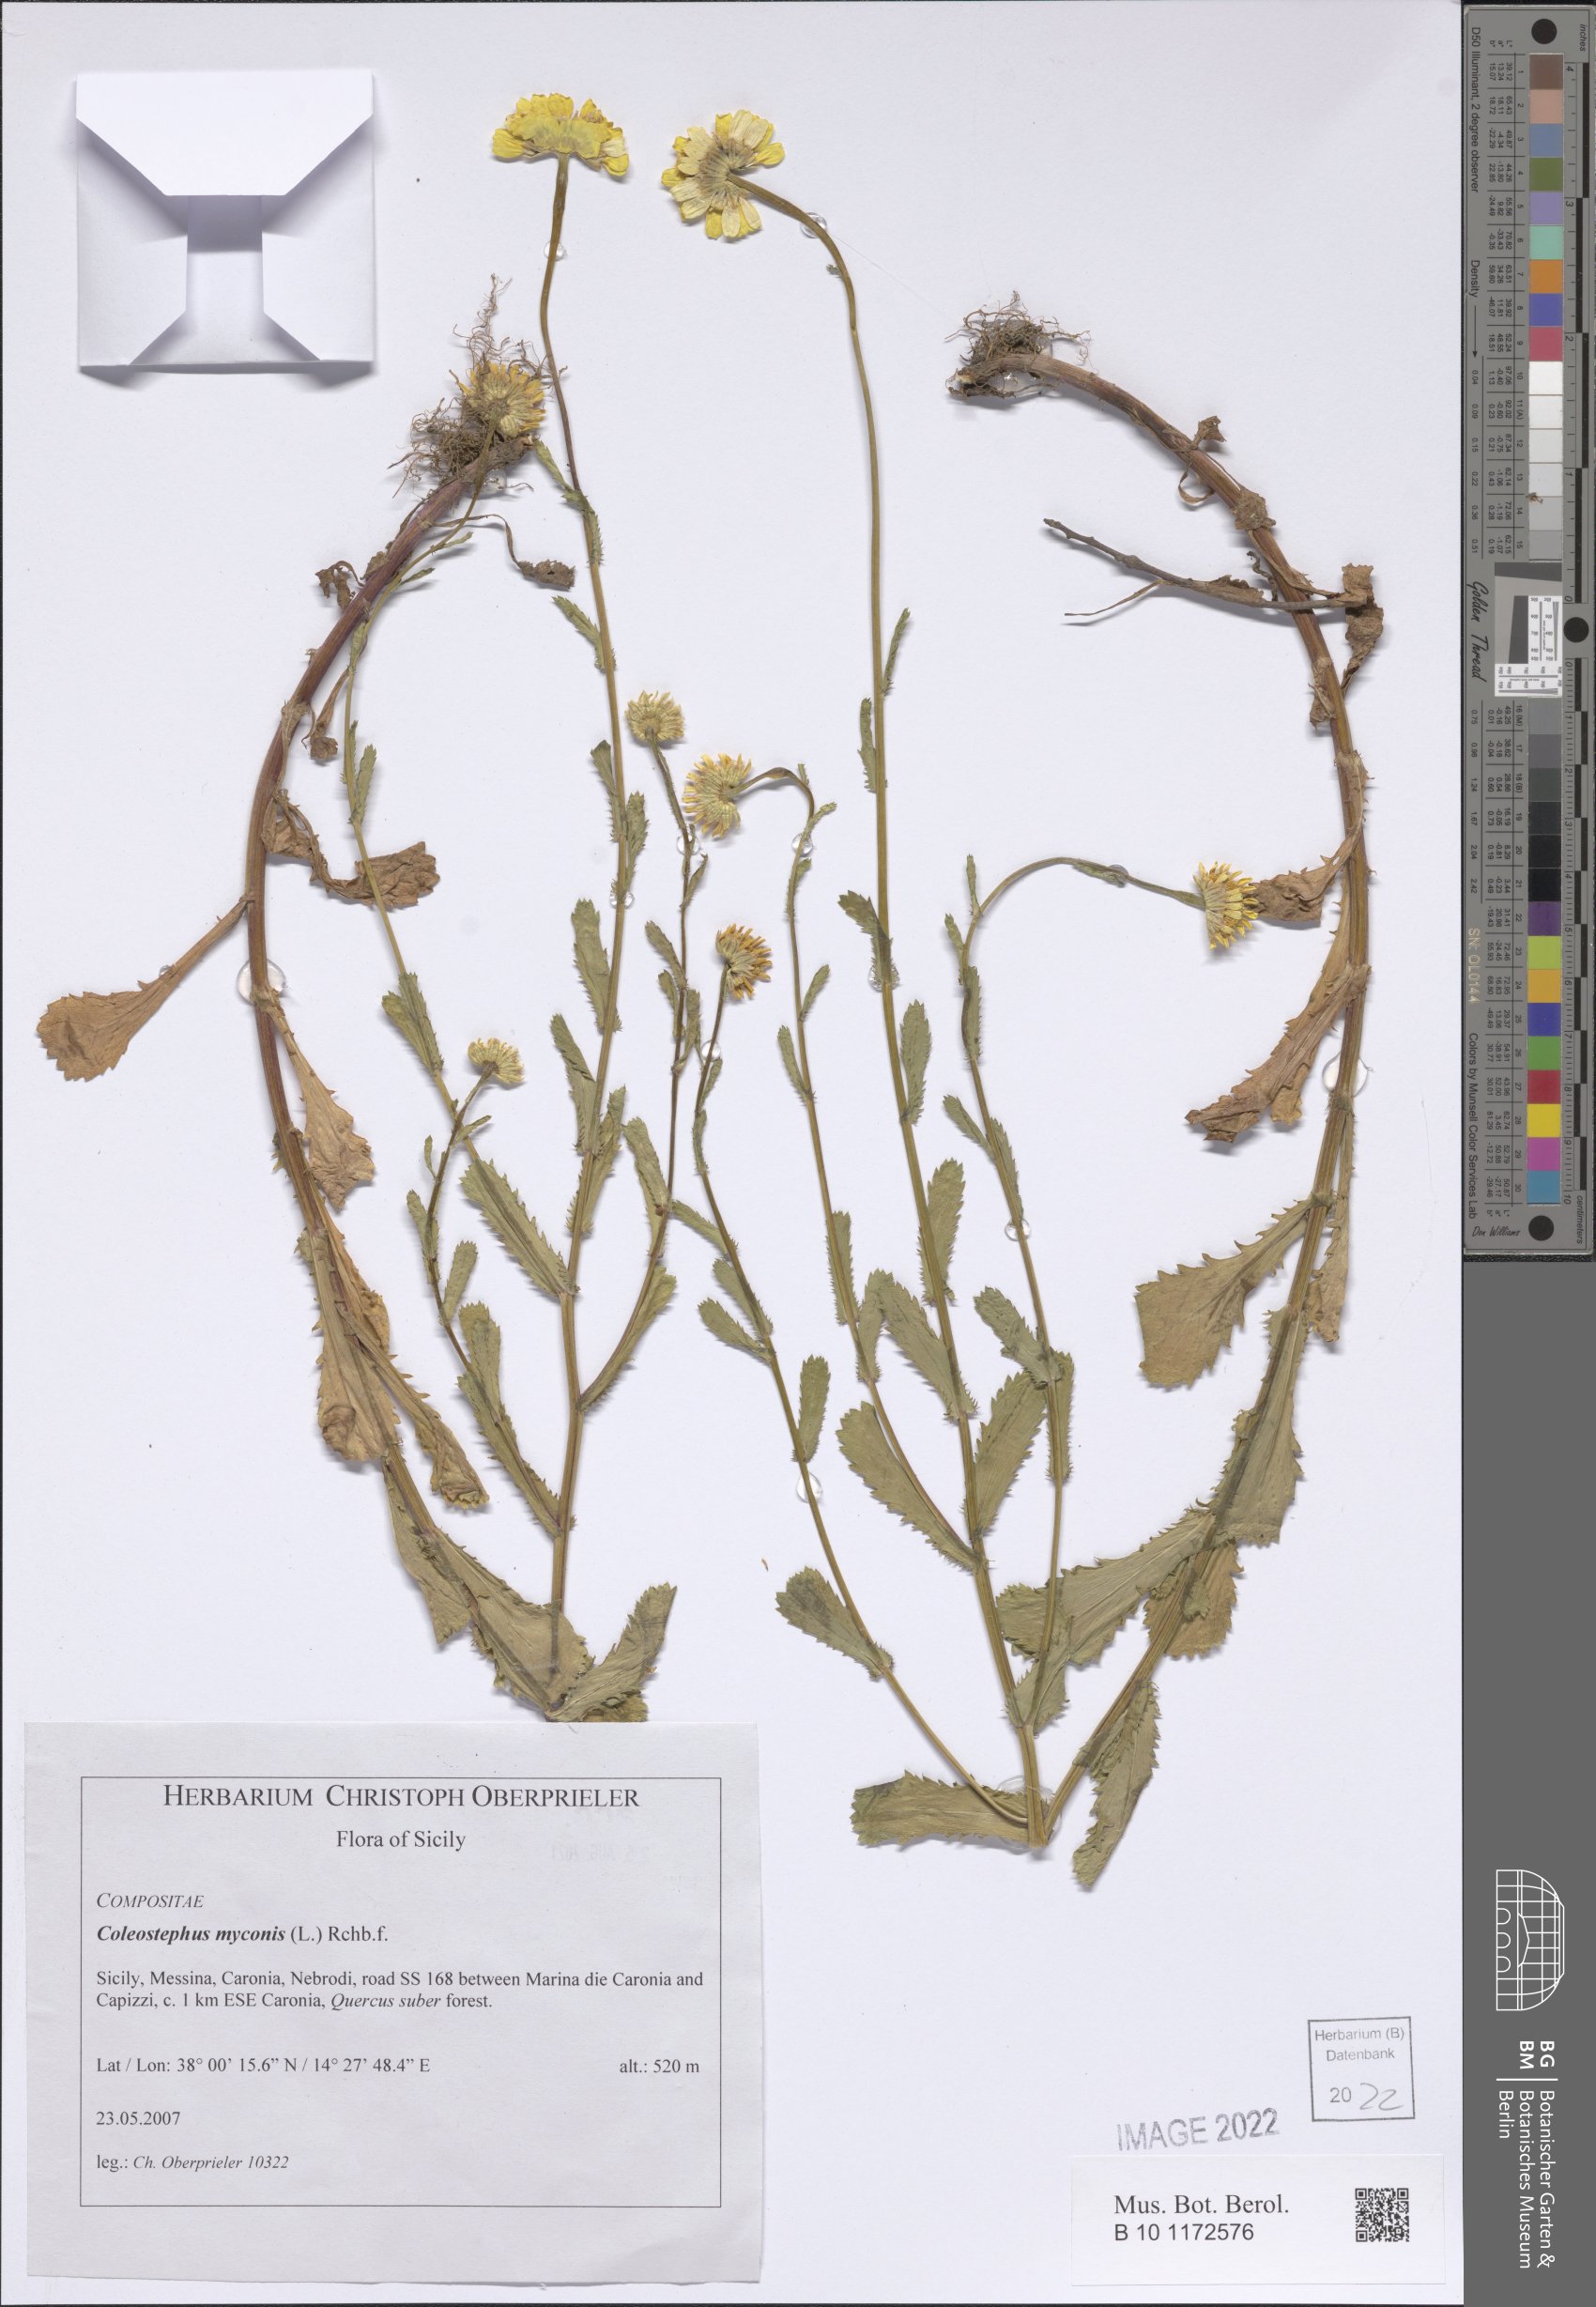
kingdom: Plantae
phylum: Tracheophyta
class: Magnoliopsida
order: Asterales
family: Asteraceae
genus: Coleostephus
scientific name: Coleostephus myconis
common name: Mediterranean marigold
